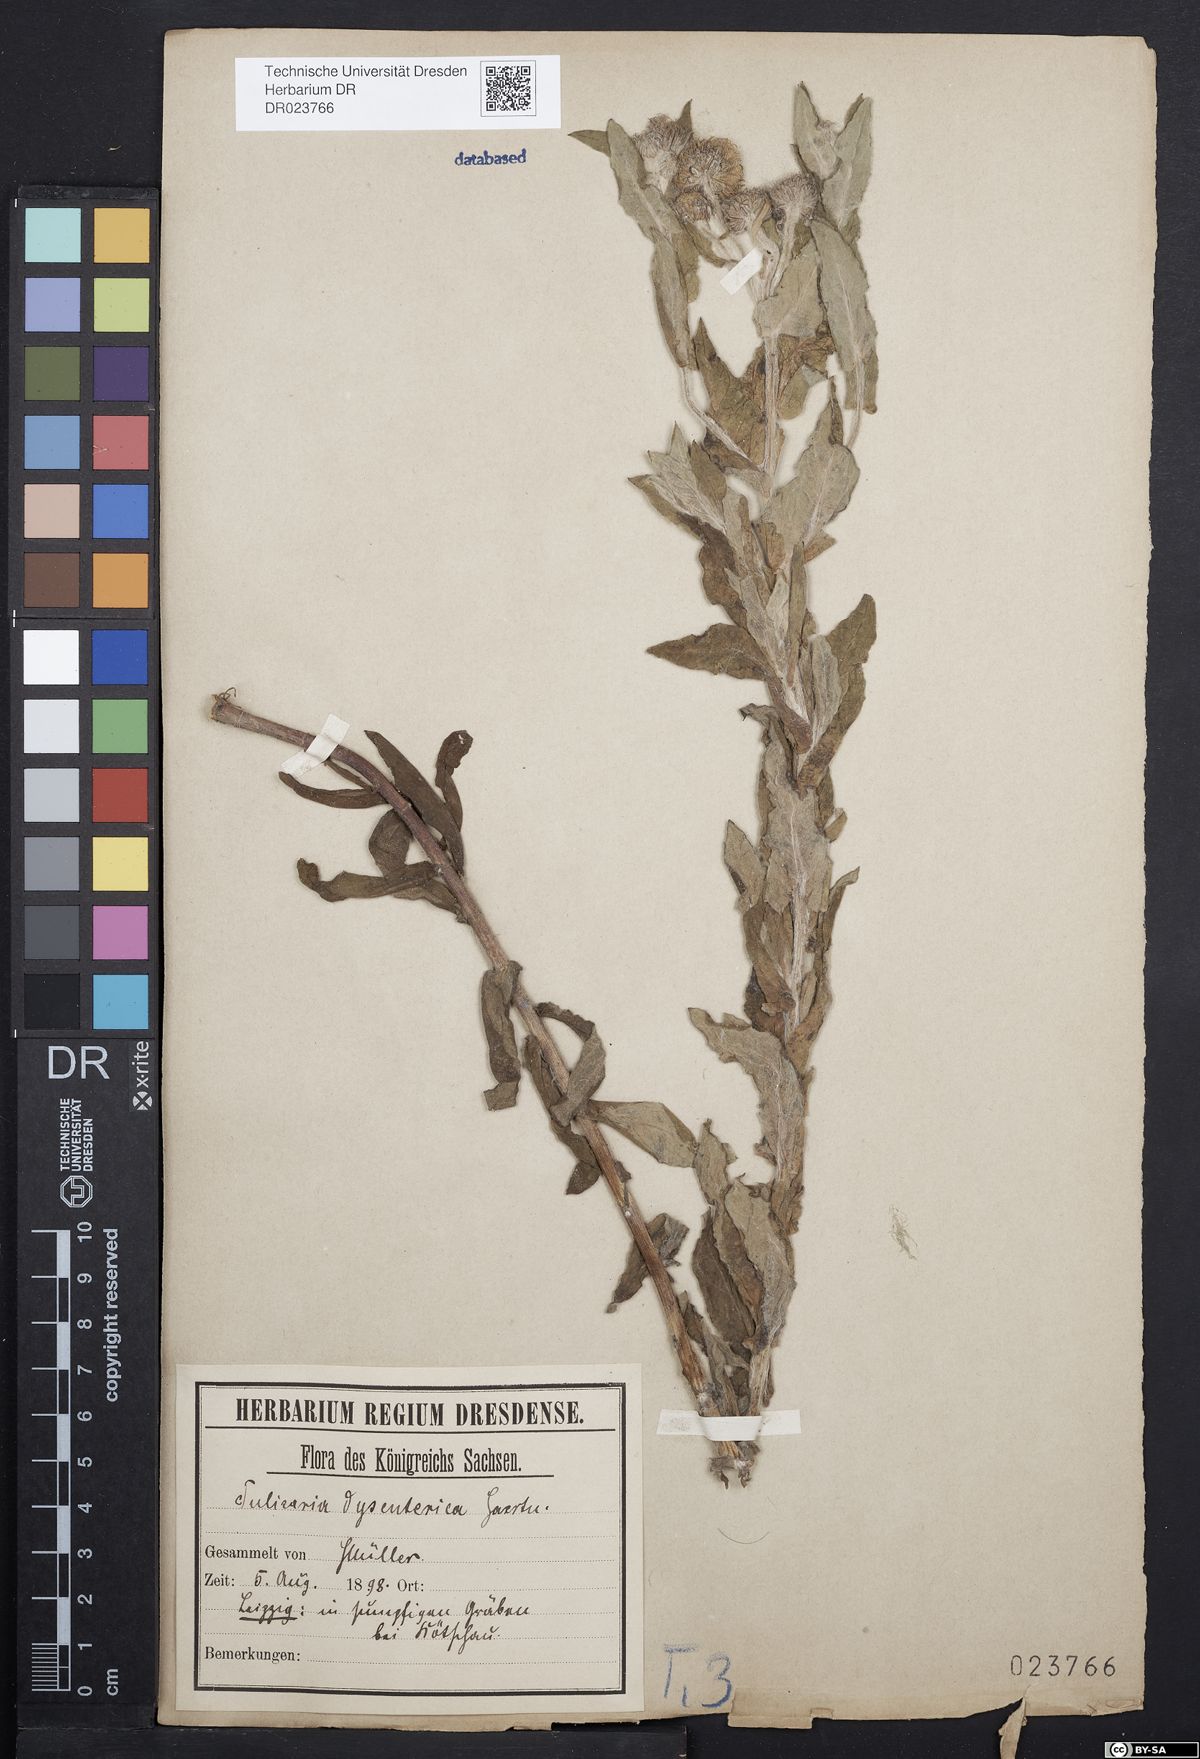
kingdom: Plantae
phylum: Tracheophyta
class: Magnoliopsida
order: Asterales
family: Asteraceae
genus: Pulicaria
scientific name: Pulicaria dysenterica
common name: Common fleabane
